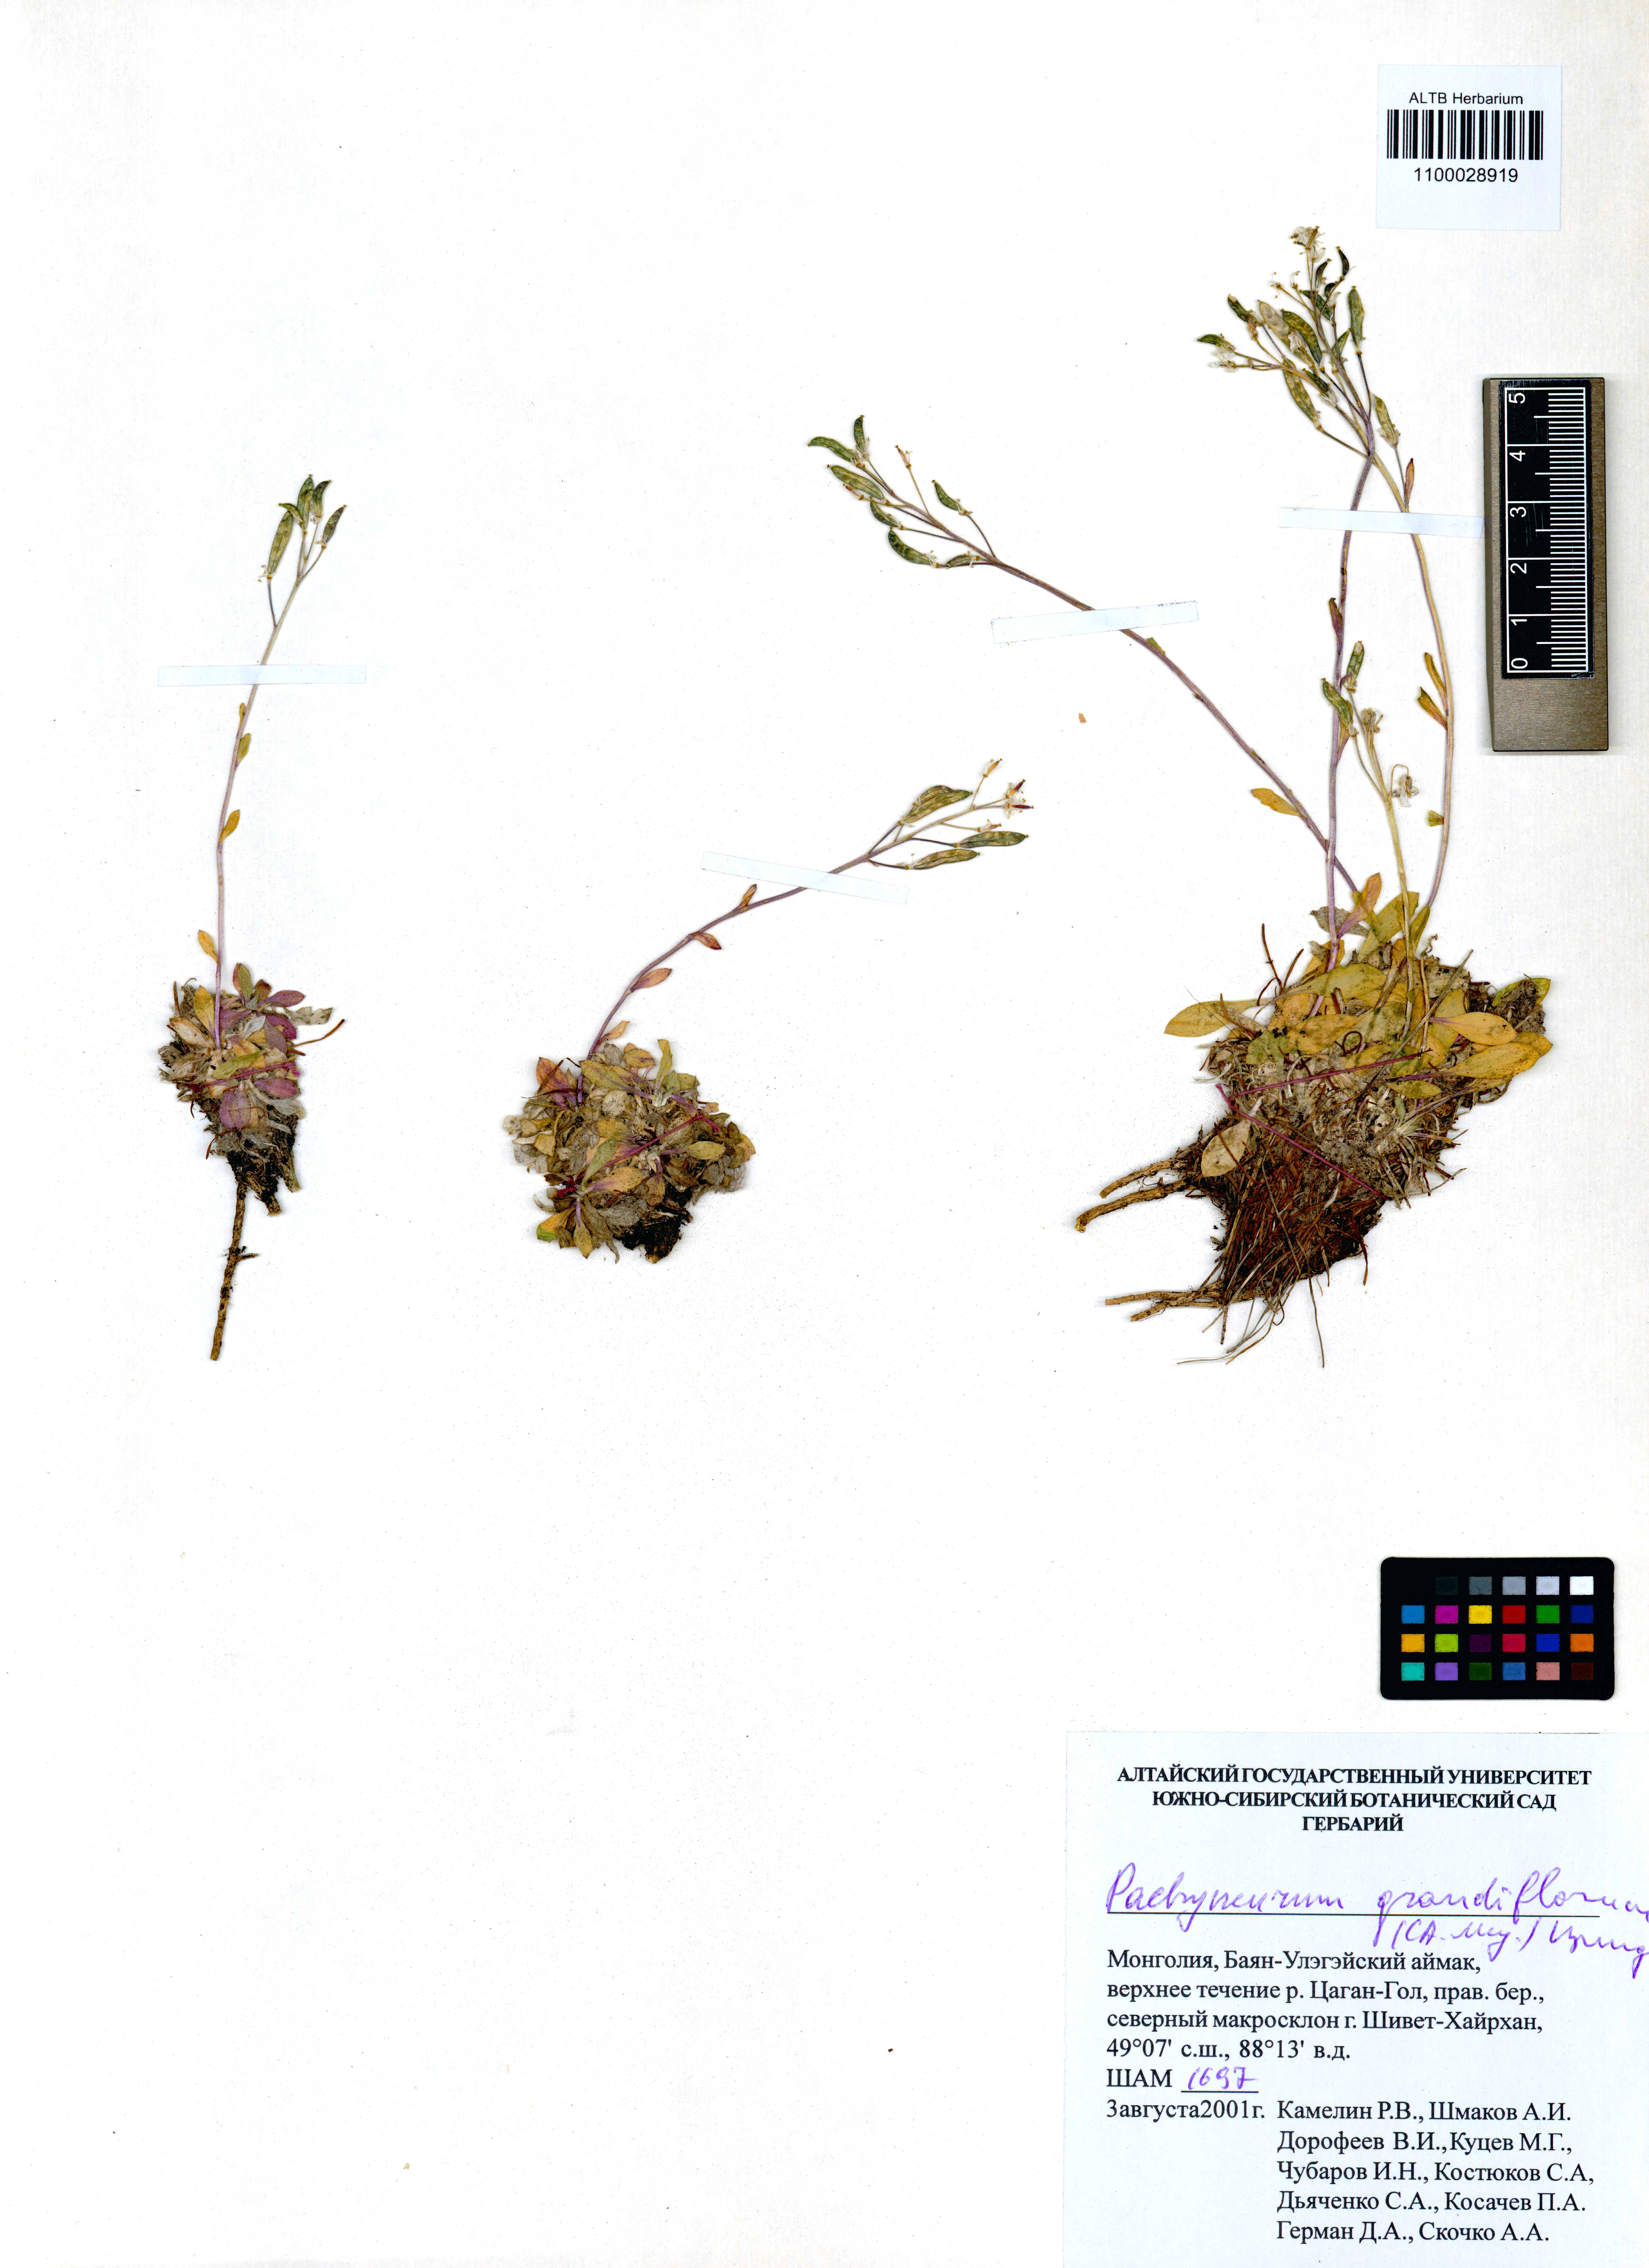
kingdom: Plantae
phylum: Tracheophyta
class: Magnoliopsida
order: Brassicales
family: Brassicaceae
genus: Pachyneurum
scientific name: Pachyneurum grandiflorum
